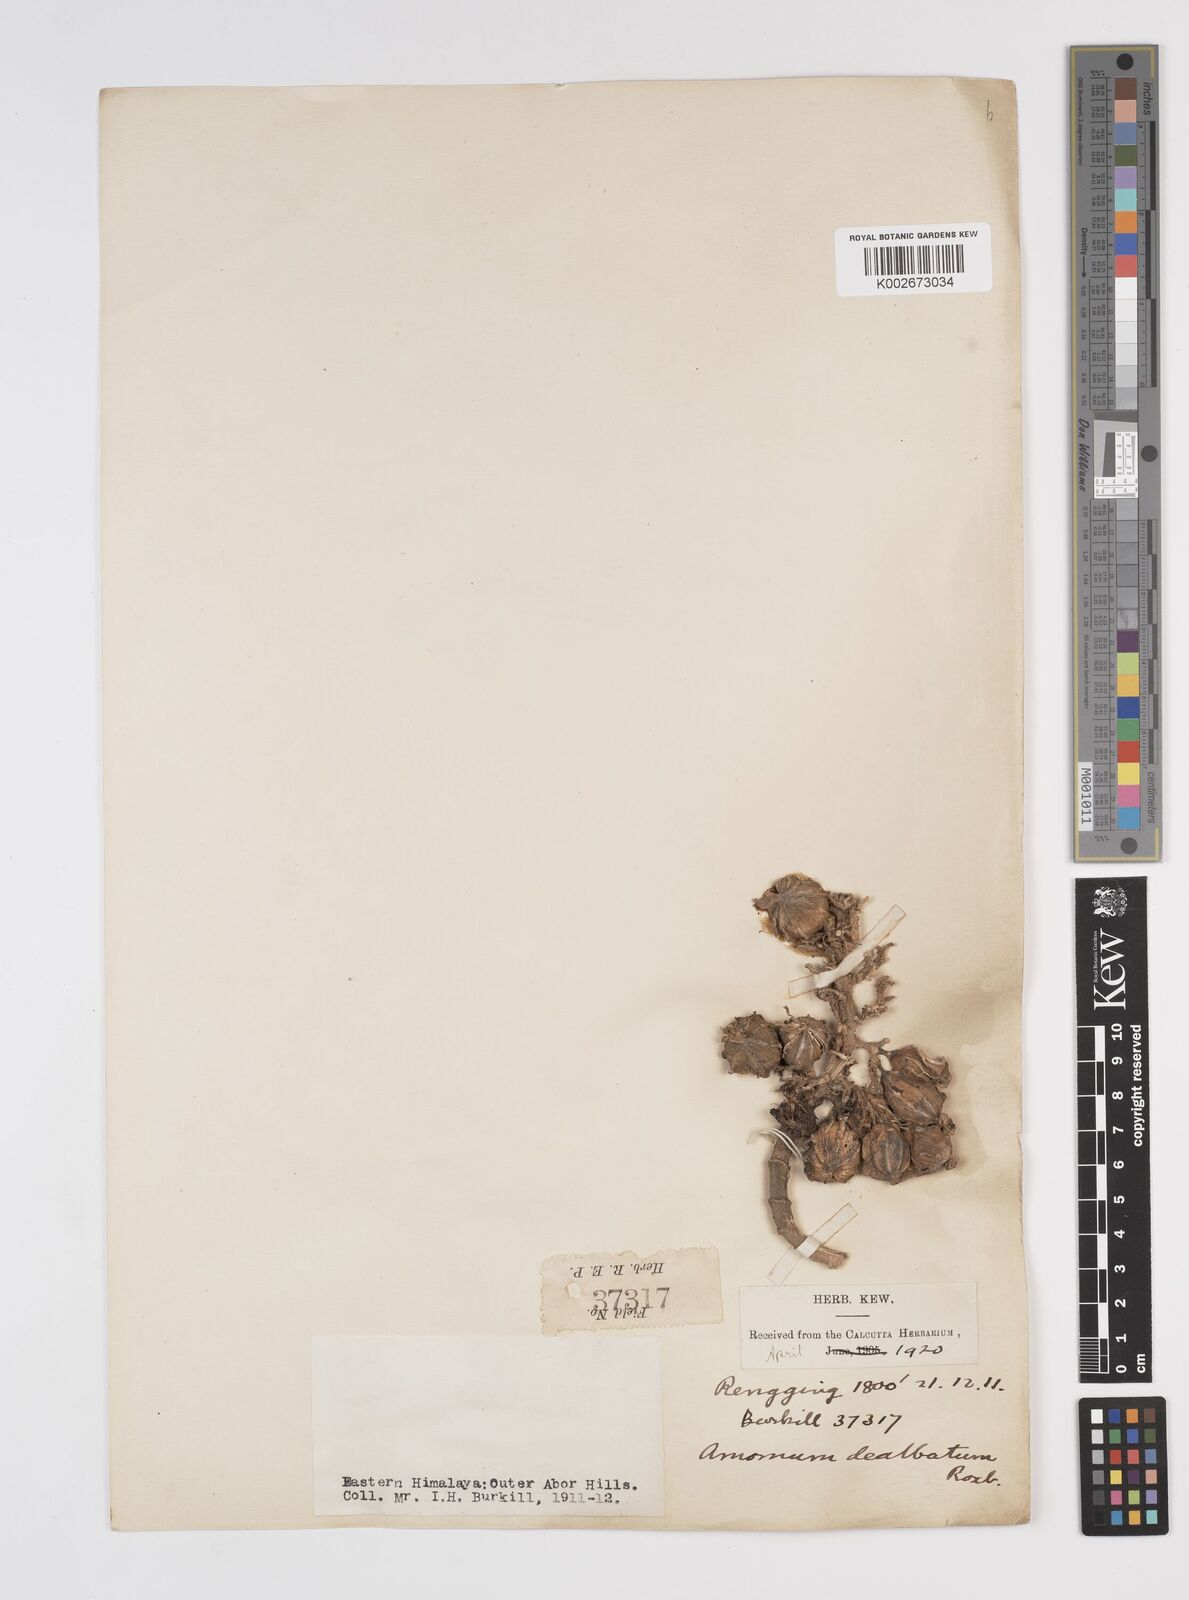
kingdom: Plantae
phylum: Tracheophyta
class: Liliopsida
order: Zingiberales
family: Zingiberaceae
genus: Amomum
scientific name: Amomum dealbatum
